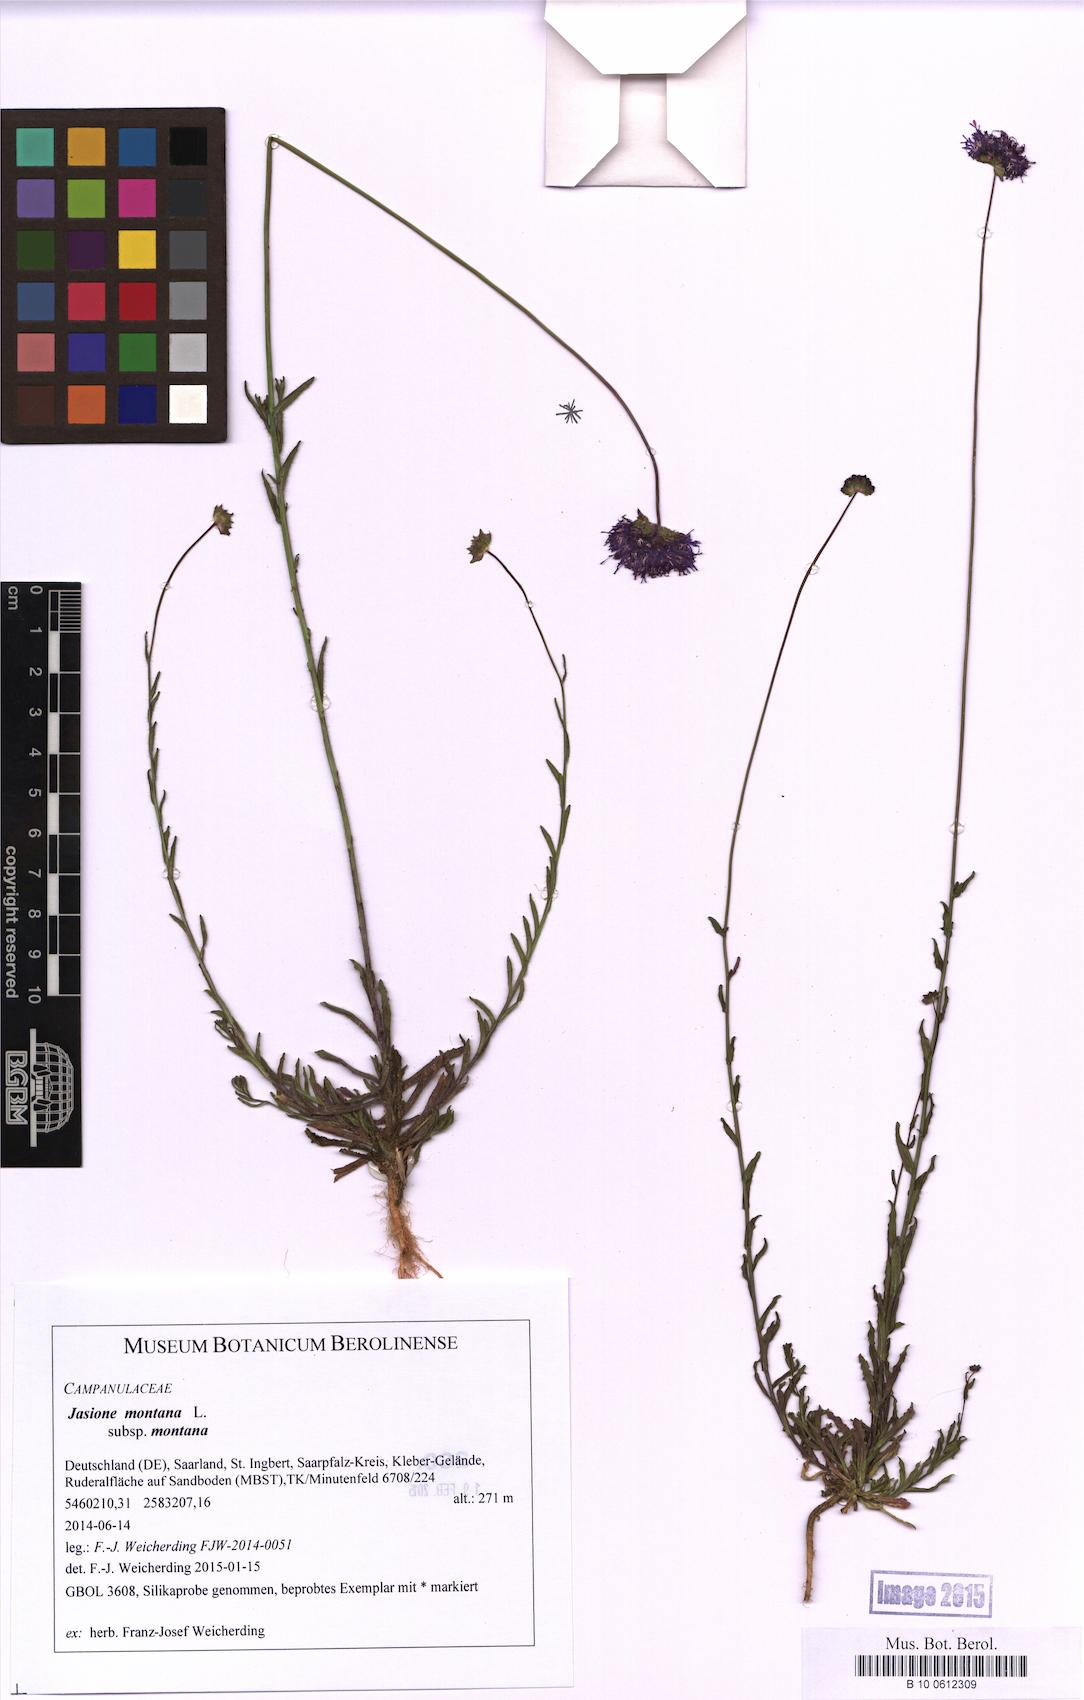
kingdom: Plantae
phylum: Tracheophyta
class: Magnoliopsida
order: Asterales
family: Campanulaceae
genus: Jasione
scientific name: Jasione montana
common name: Sheep's-bit
